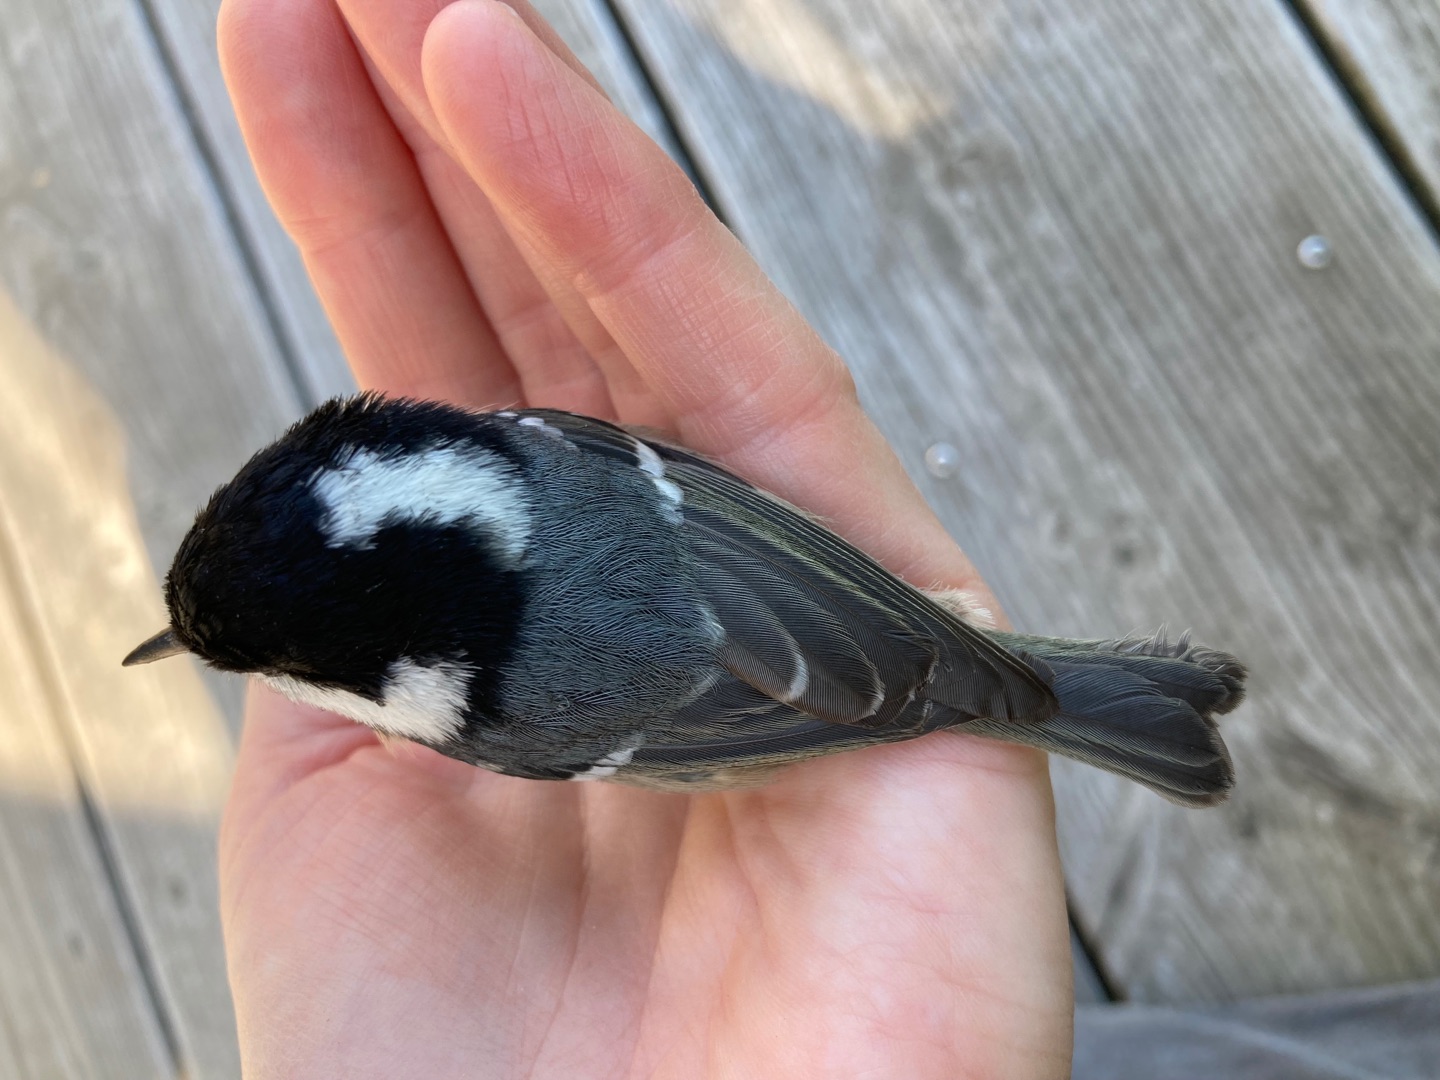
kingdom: Animalia
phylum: Chordata
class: Aves
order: Passeriformes
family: Paridae
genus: Periparus
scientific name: Periparus ater
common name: Sortmejse
